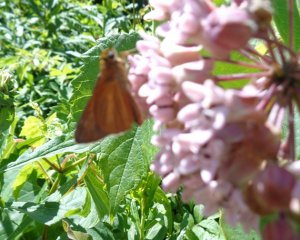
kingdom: Animalia
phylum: Arthropoda
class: Insecta
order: Lepidoptera
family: Hesperiidae
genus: Euphyes
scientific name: Euphyes dion
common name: Dion Skipper
